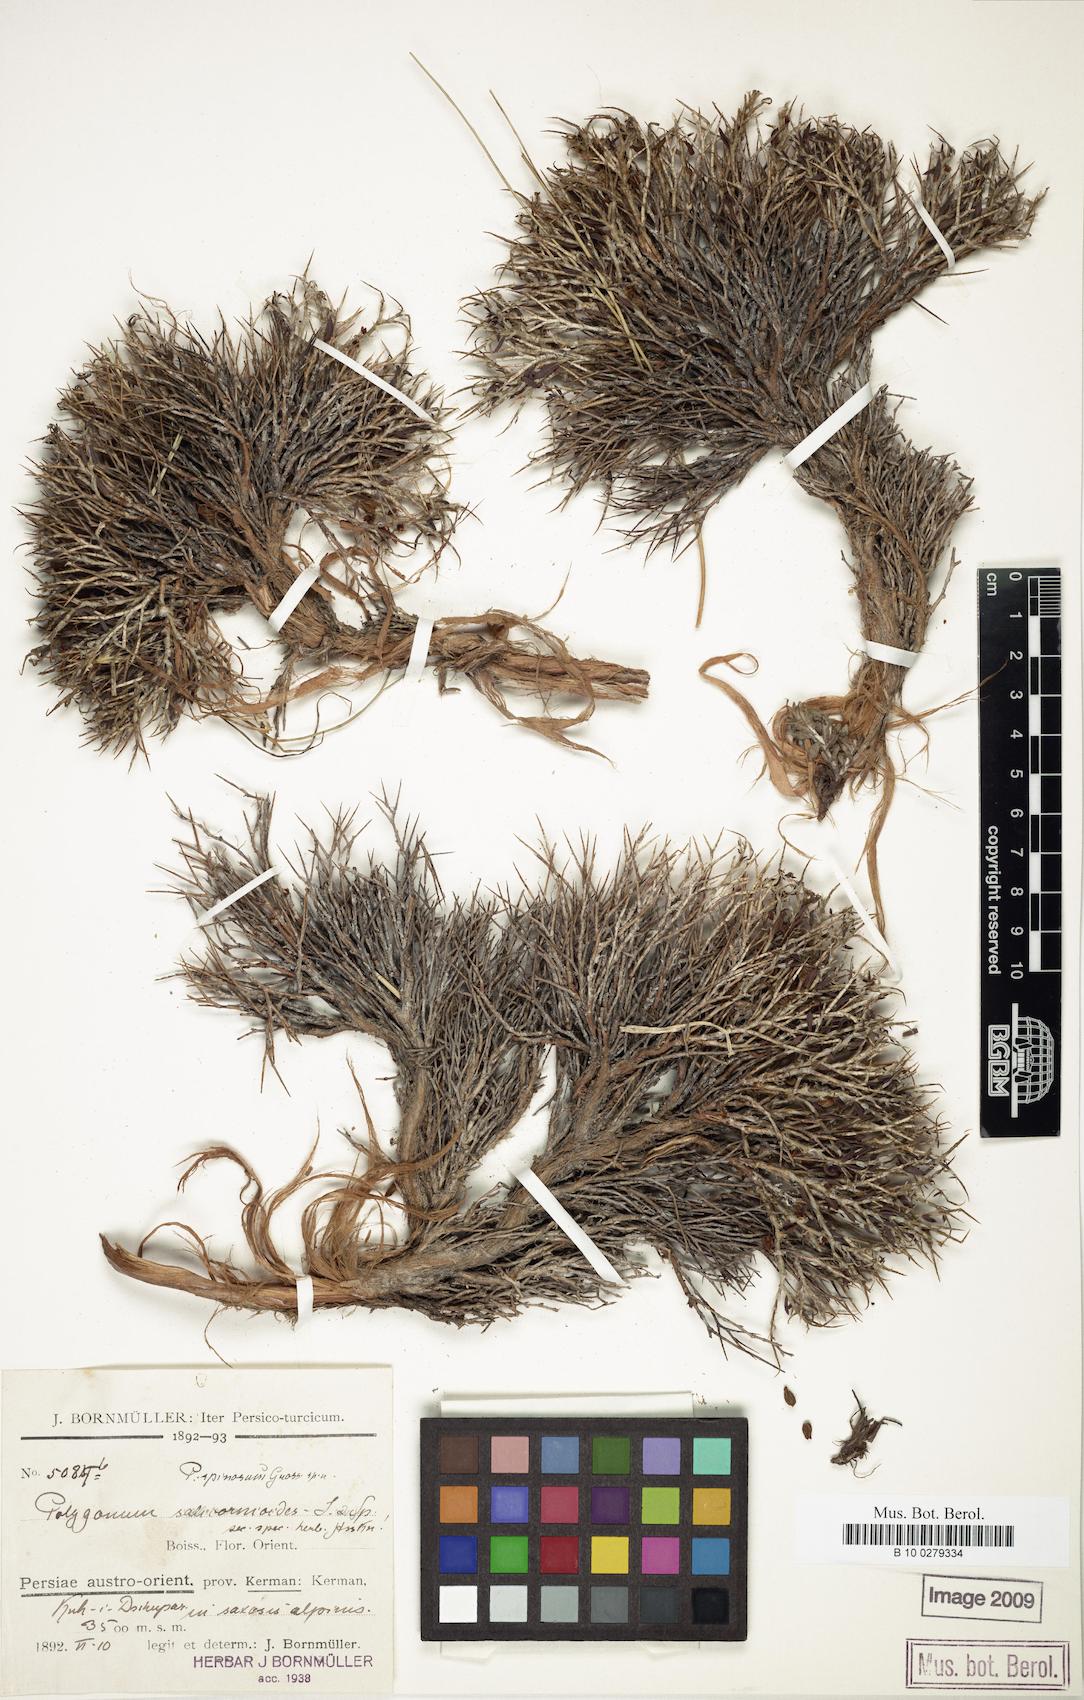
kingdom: Plantae
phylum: Tracheophyta
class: Magnoliopsida
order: Caryophyllales
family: Polygonaceae
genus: Atraphaxis
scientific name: Atraphaxis kermanica
